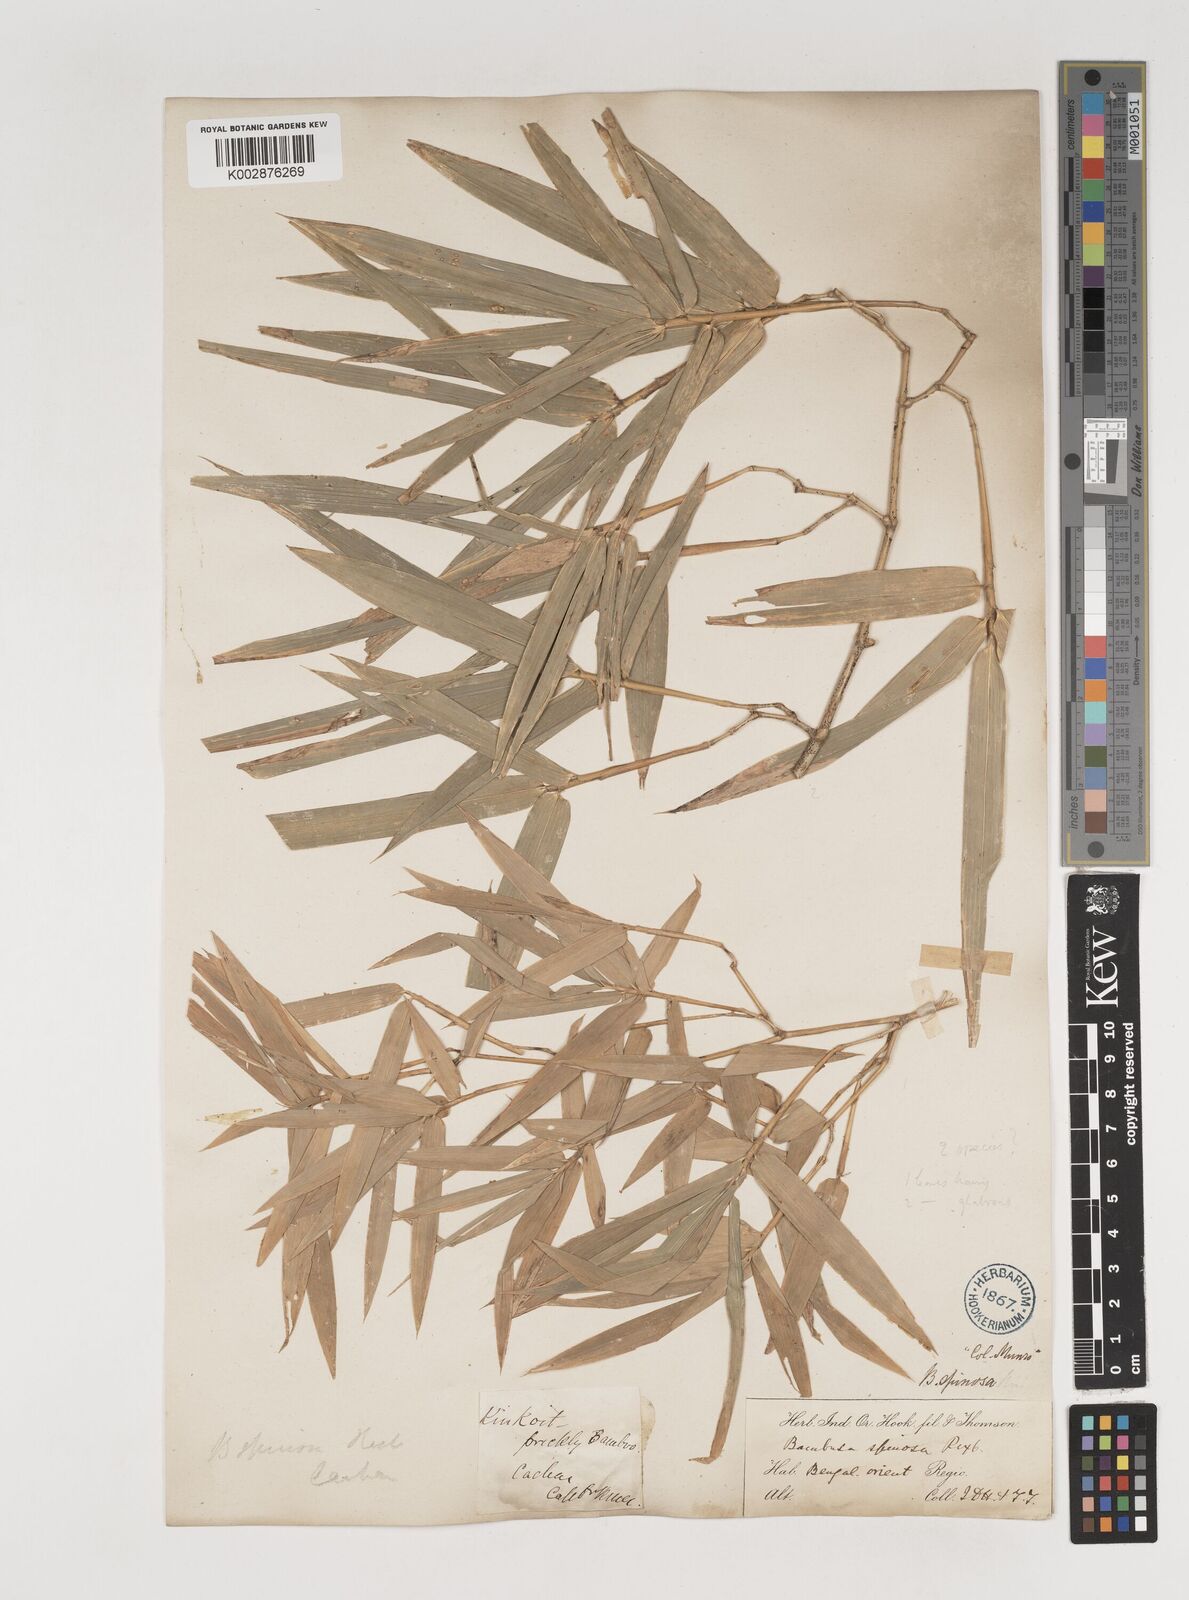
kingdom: Plantae
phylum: Tracheophyta
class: Liliopsida
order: Poales
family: Poaceae
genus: Bambusa
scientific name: Bambusa bambos
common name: Indian thorny bamboo
